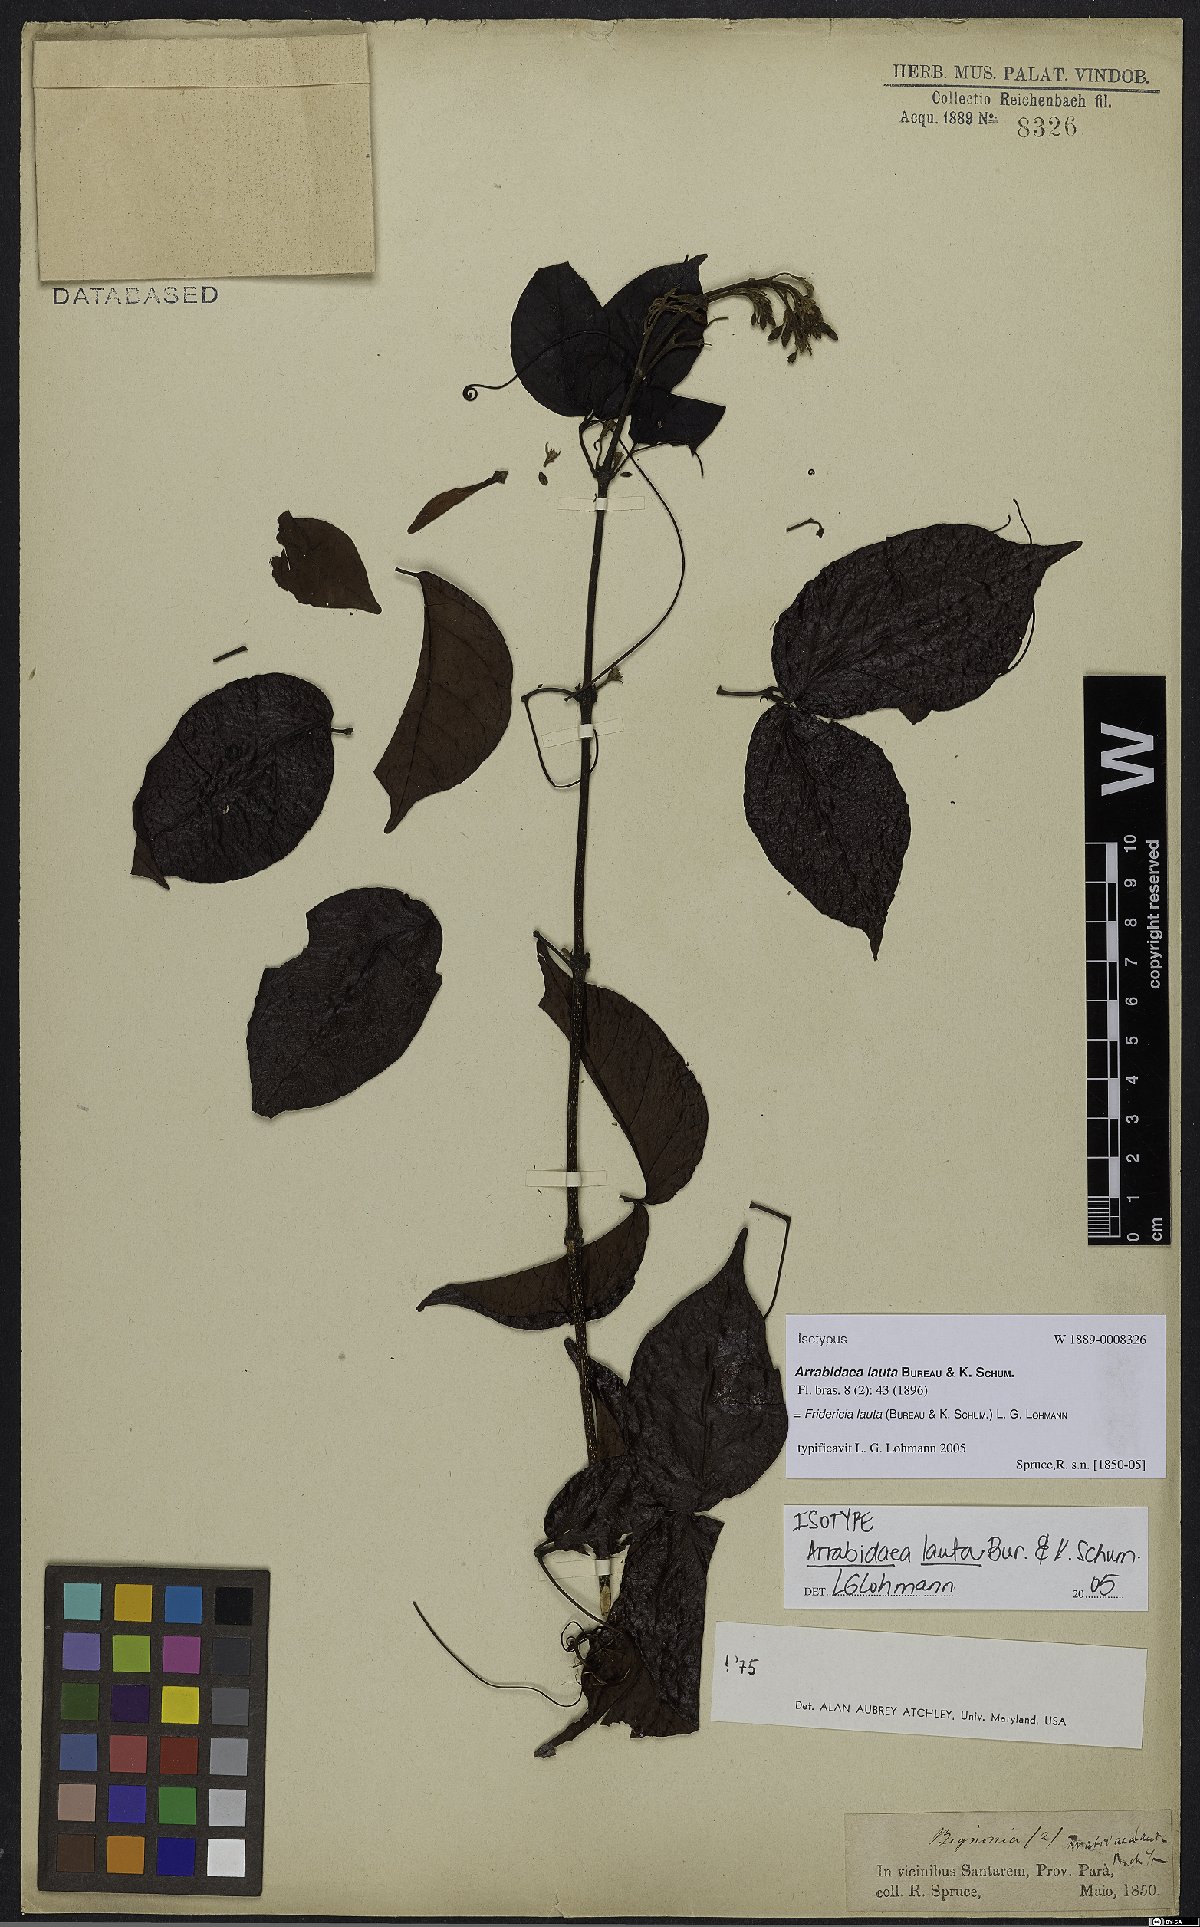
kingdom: Plantae
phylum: Tracheophyta
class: Magnoliopsida
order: Lamiales
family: Bignoniaceae
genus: Fridericia
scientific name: Fridericia lauta
